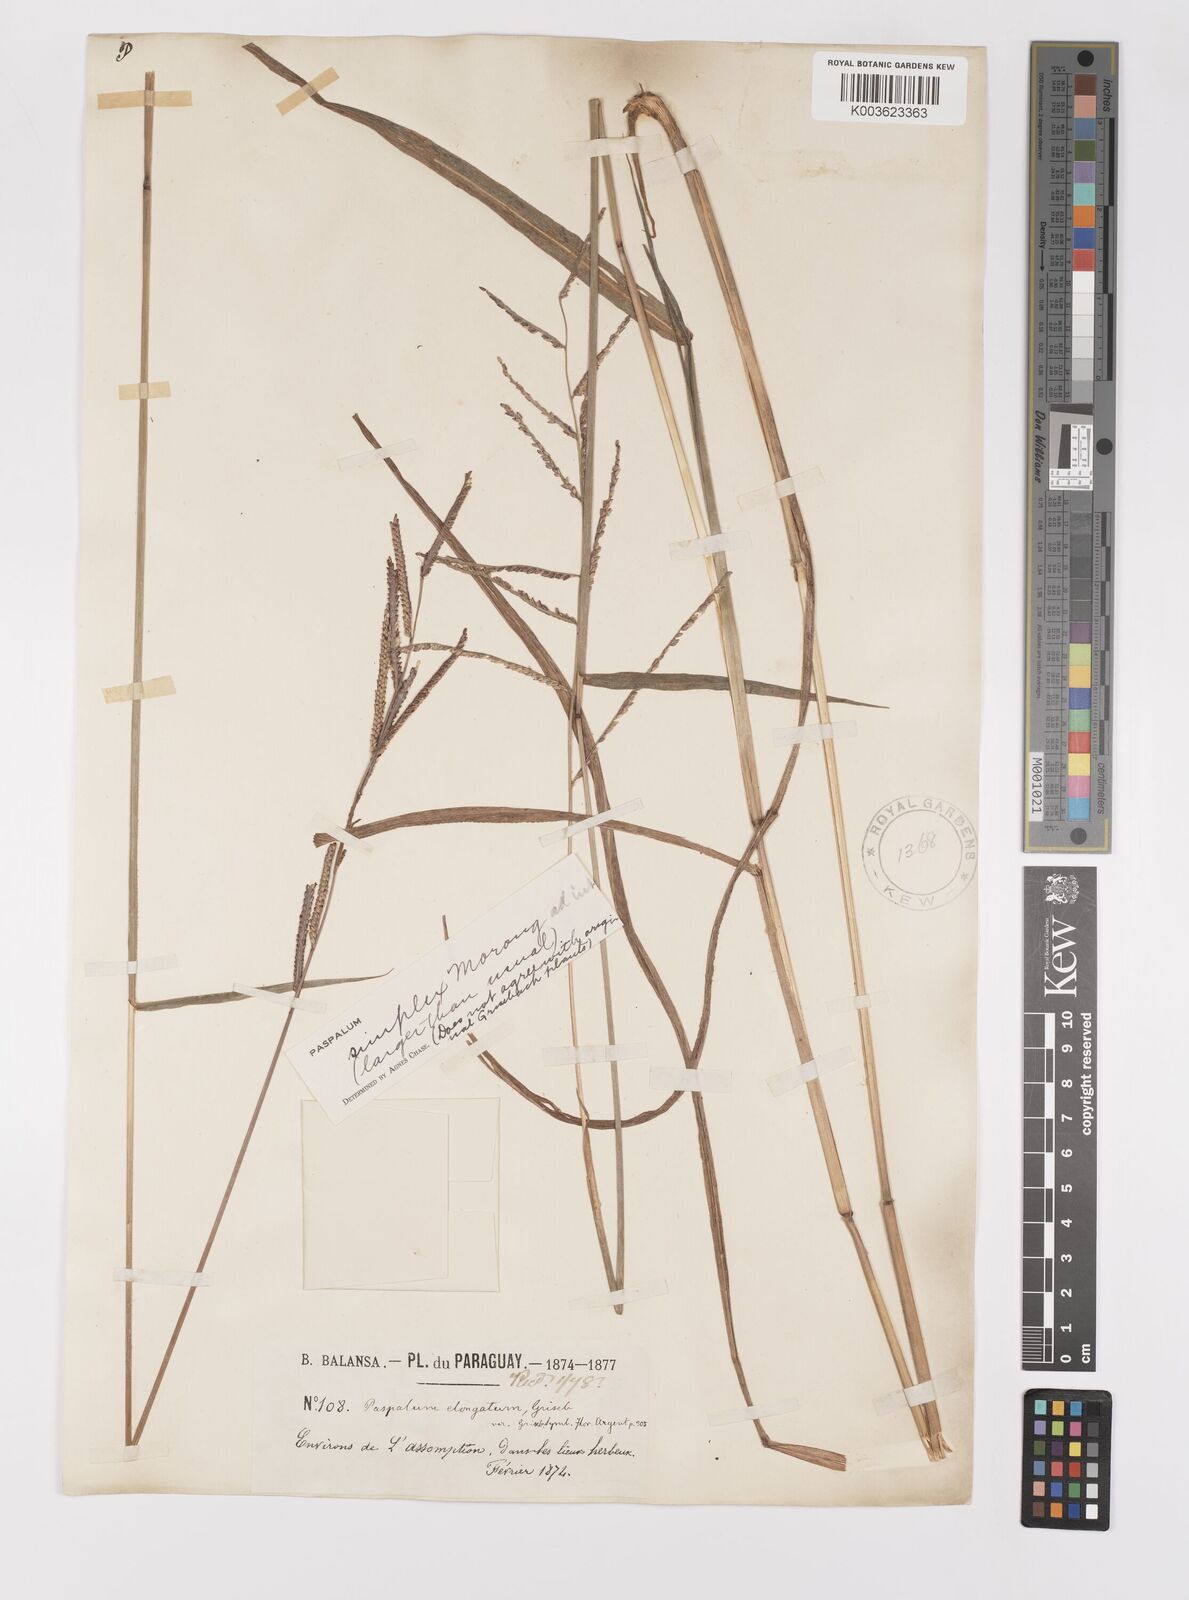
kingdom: Plantae
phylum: Tracheophyta
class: Liliopsida
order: Poales
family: Poaceae
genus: Paspalum
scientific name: Paspalum simplex
